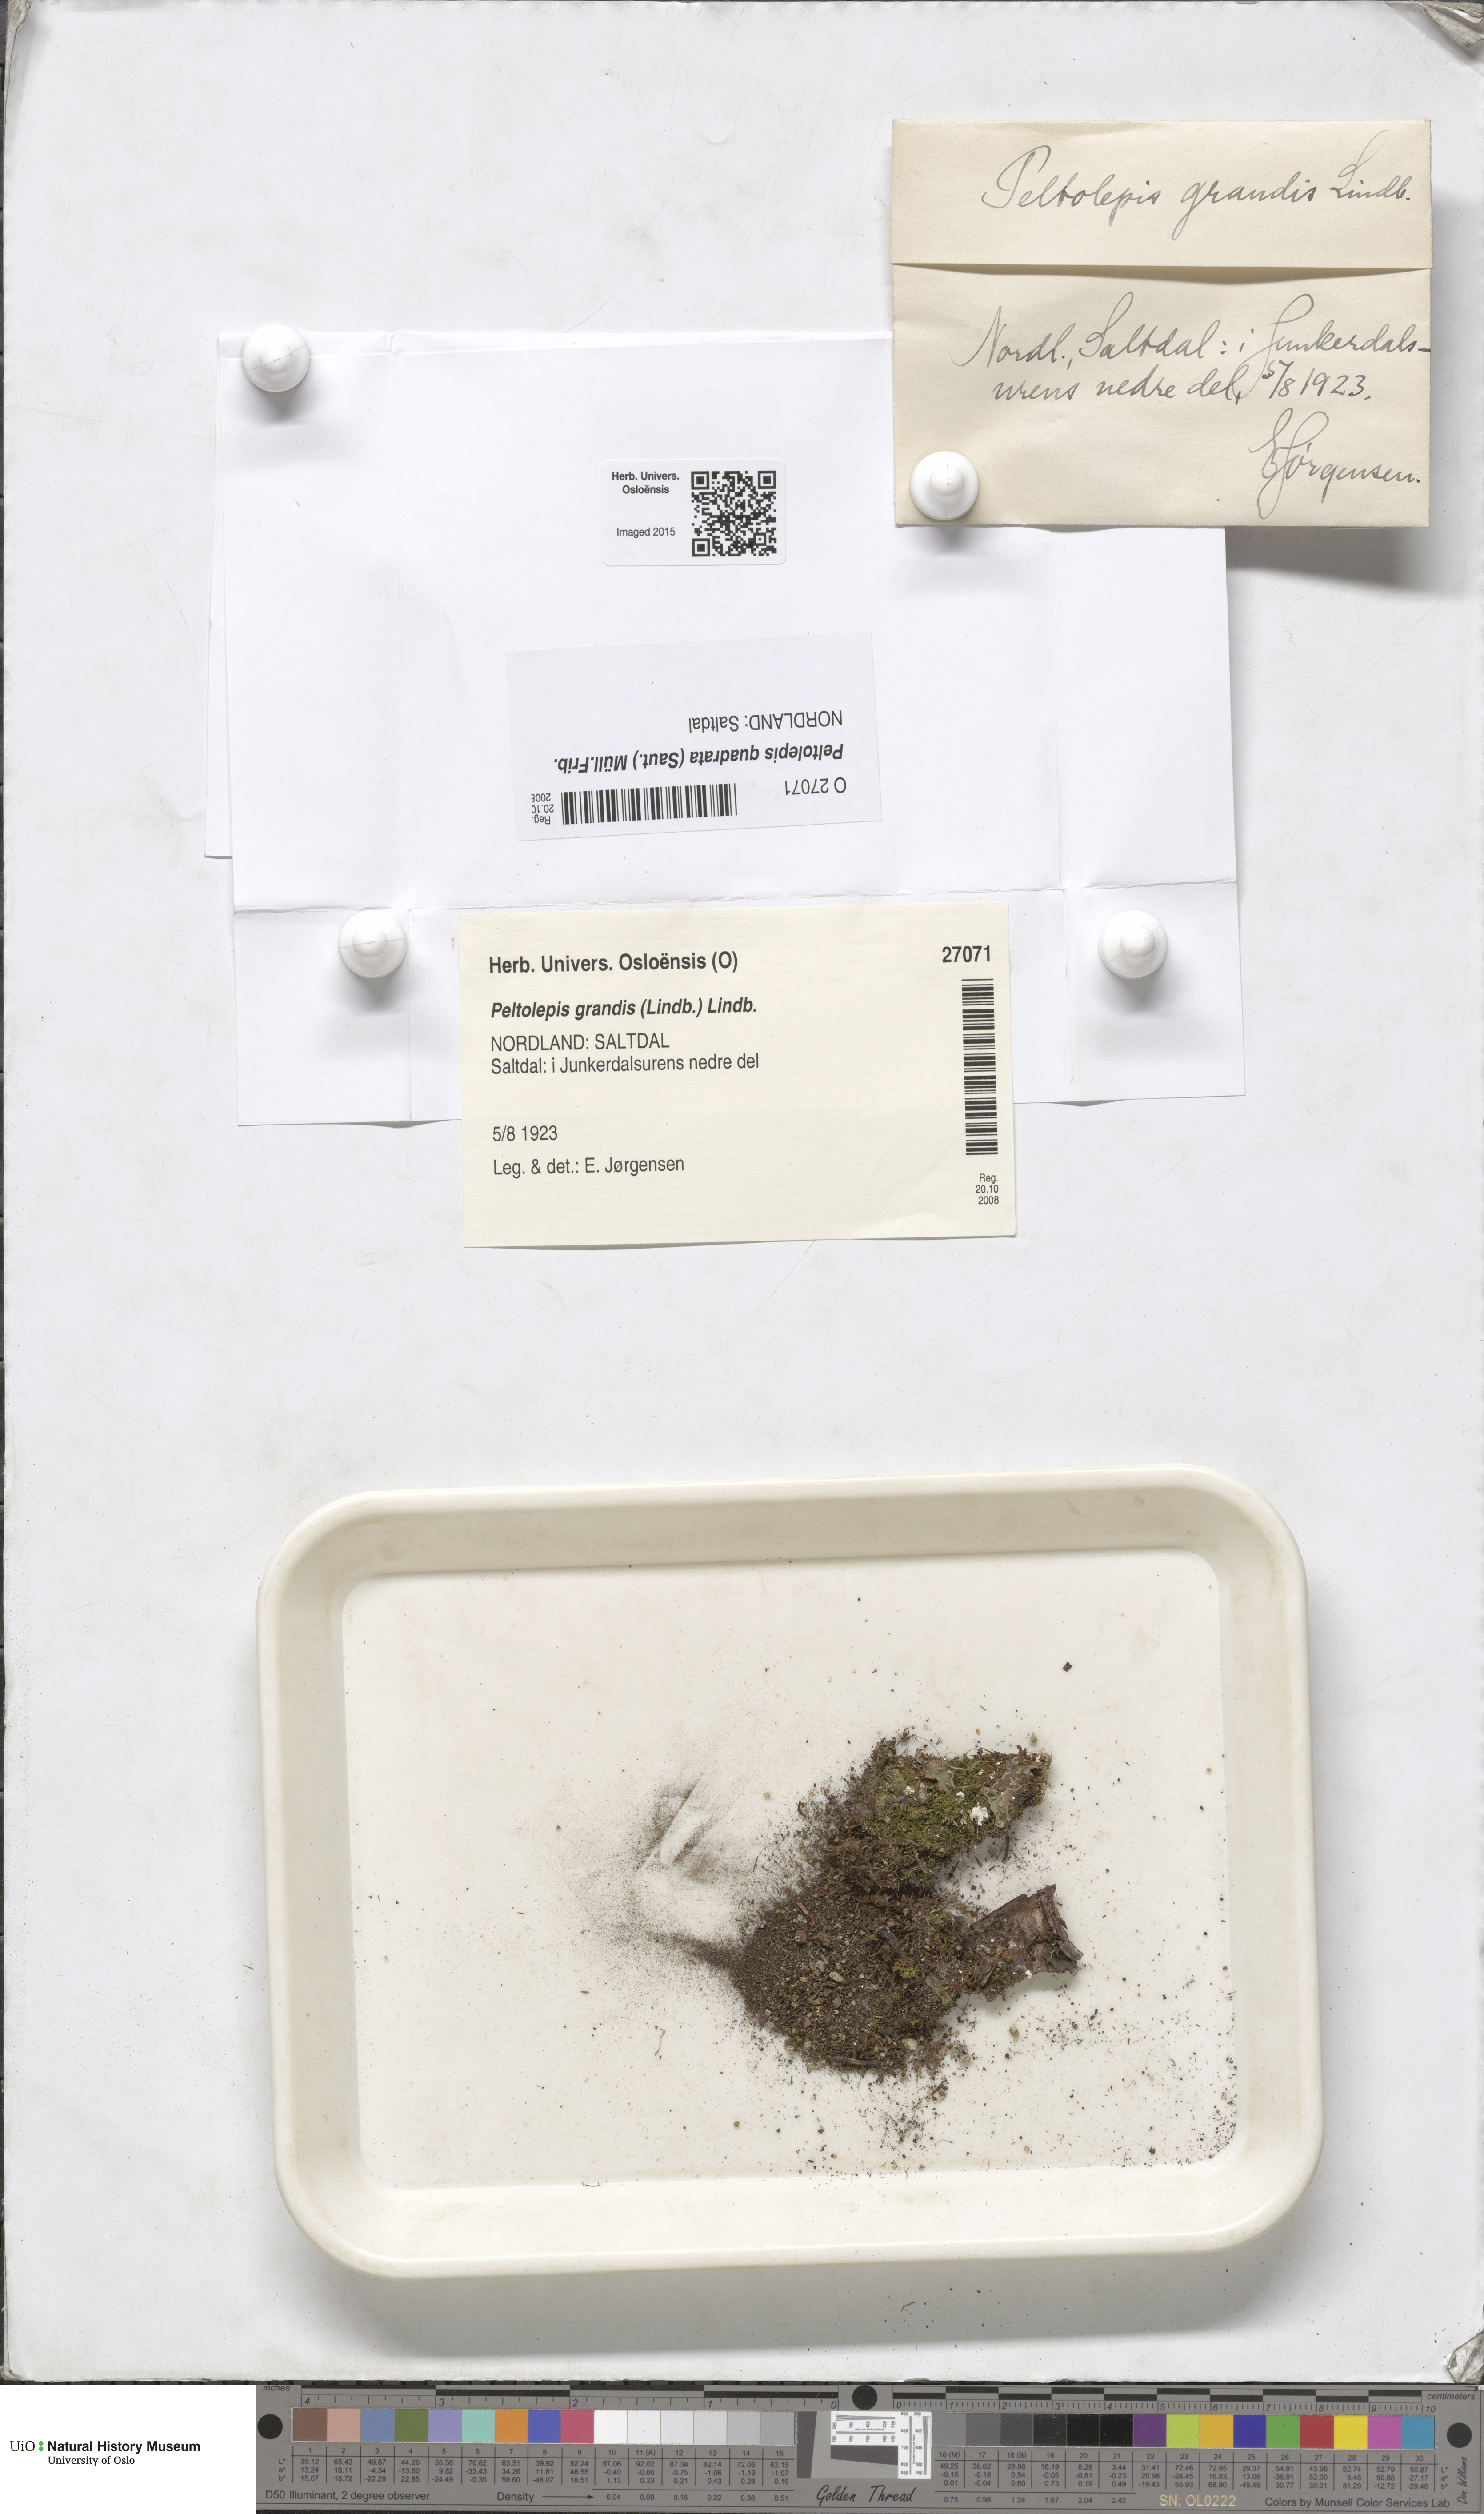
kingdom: Plantae
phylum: Marchantiophyta
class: Marchantiopsida
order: Marchantiales
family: Cleveaceae
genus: Peltolepis
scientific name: Peltolepis quadrata
